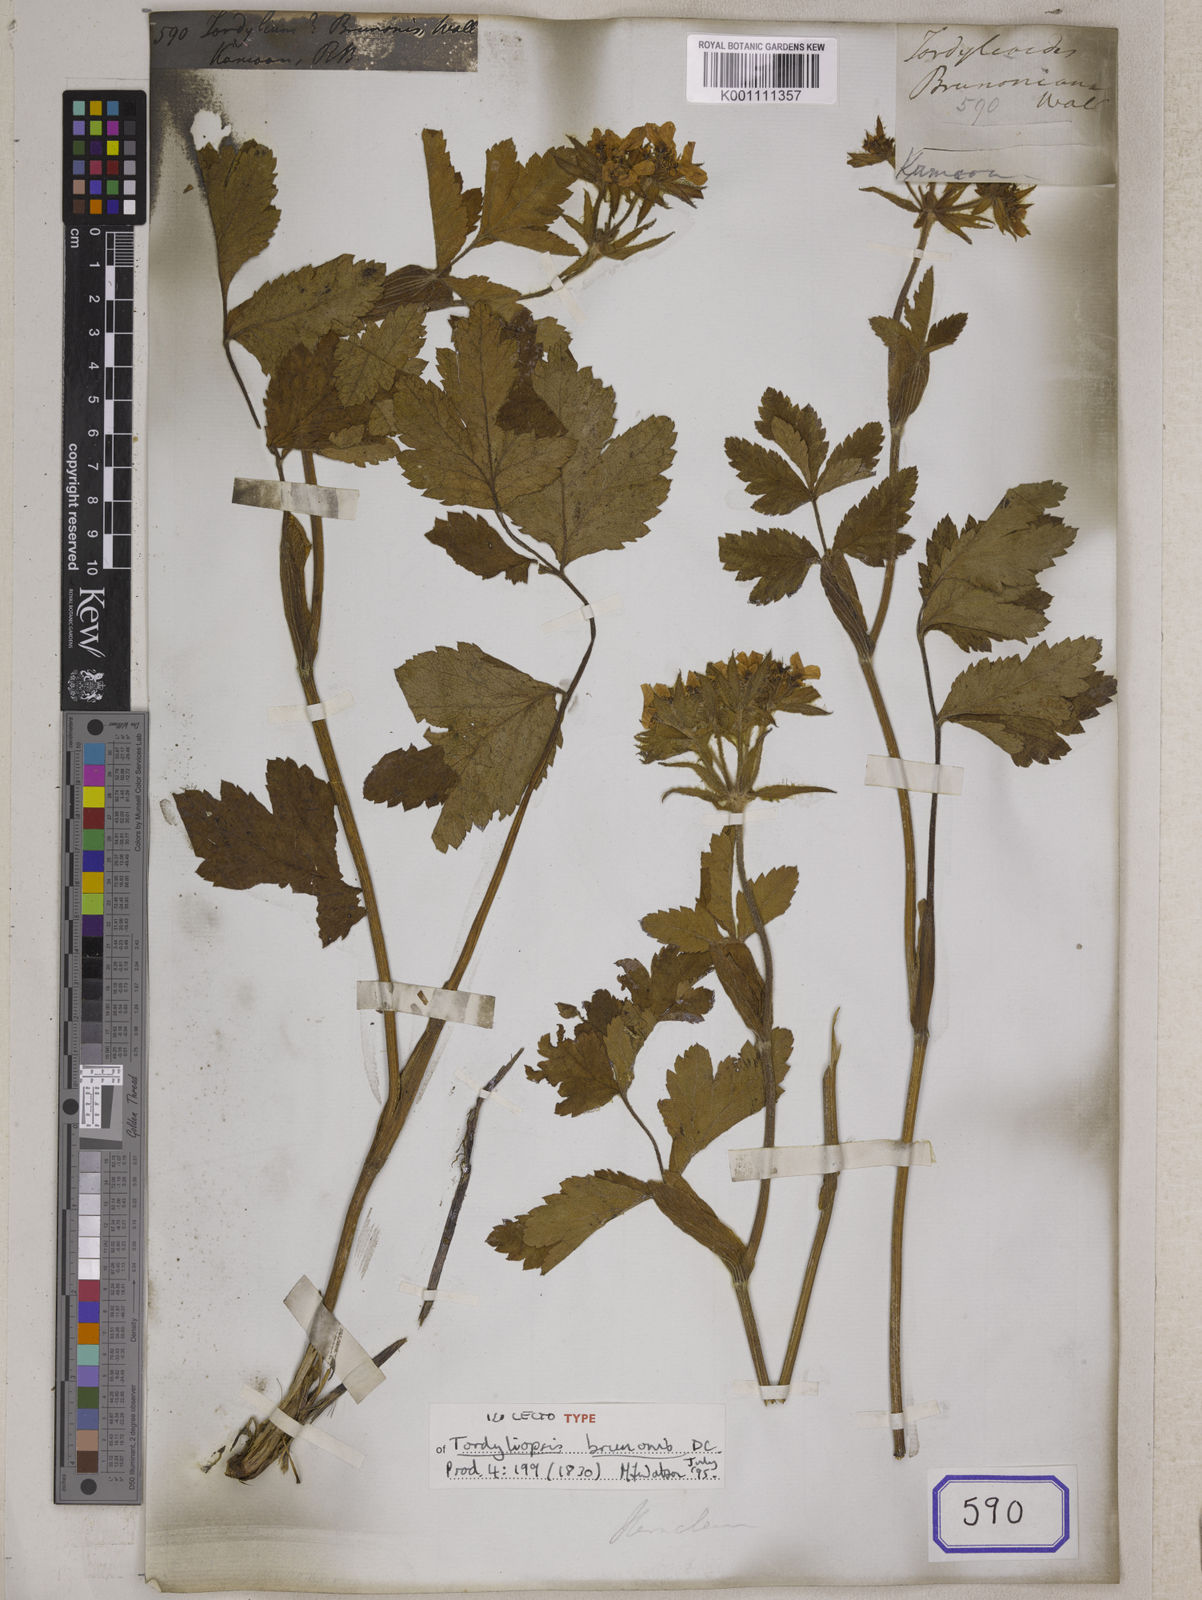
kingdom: Plantae
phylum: Tracheophyta
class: Magnoliopsida
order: Apiales
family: Apiaceae
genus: Tordyliopsis
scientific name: Tordyliopsis brunonis
